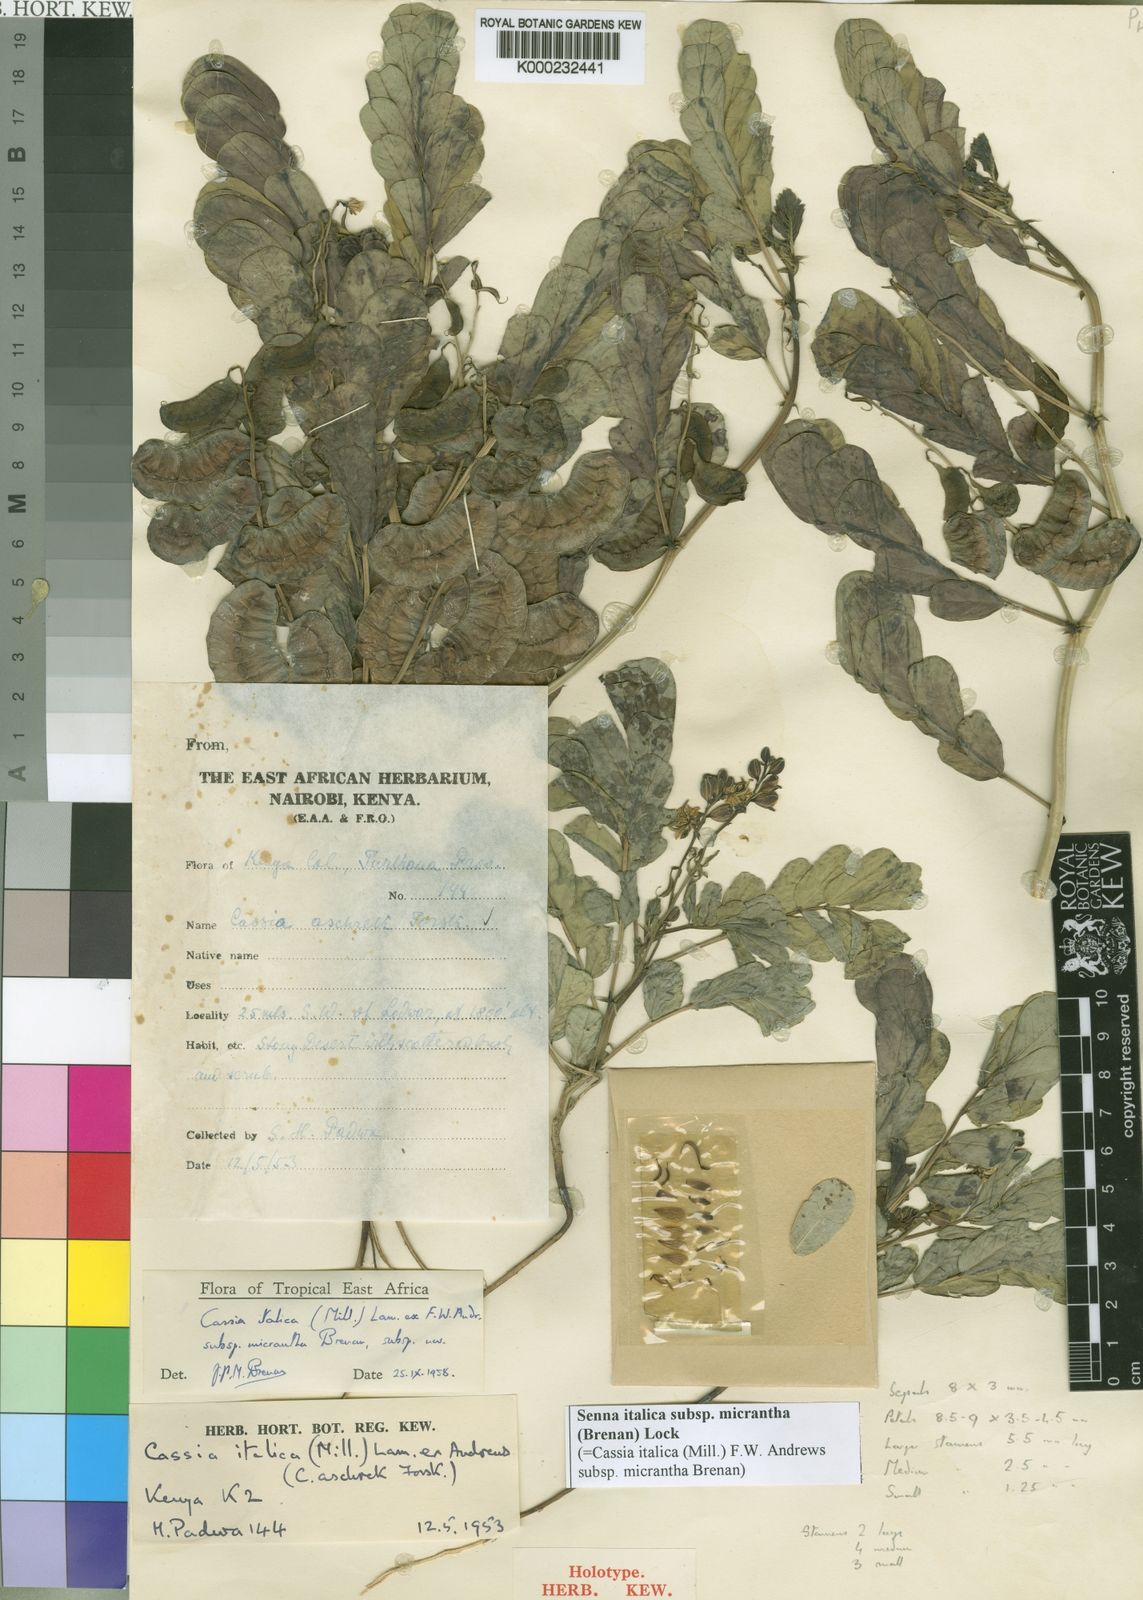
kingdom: Plantae
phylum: Tracheophyta
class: Magnoliopsida
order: Fabales
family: Fabaceae
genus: Senna
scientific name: Senna italica
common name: Port royal senna
